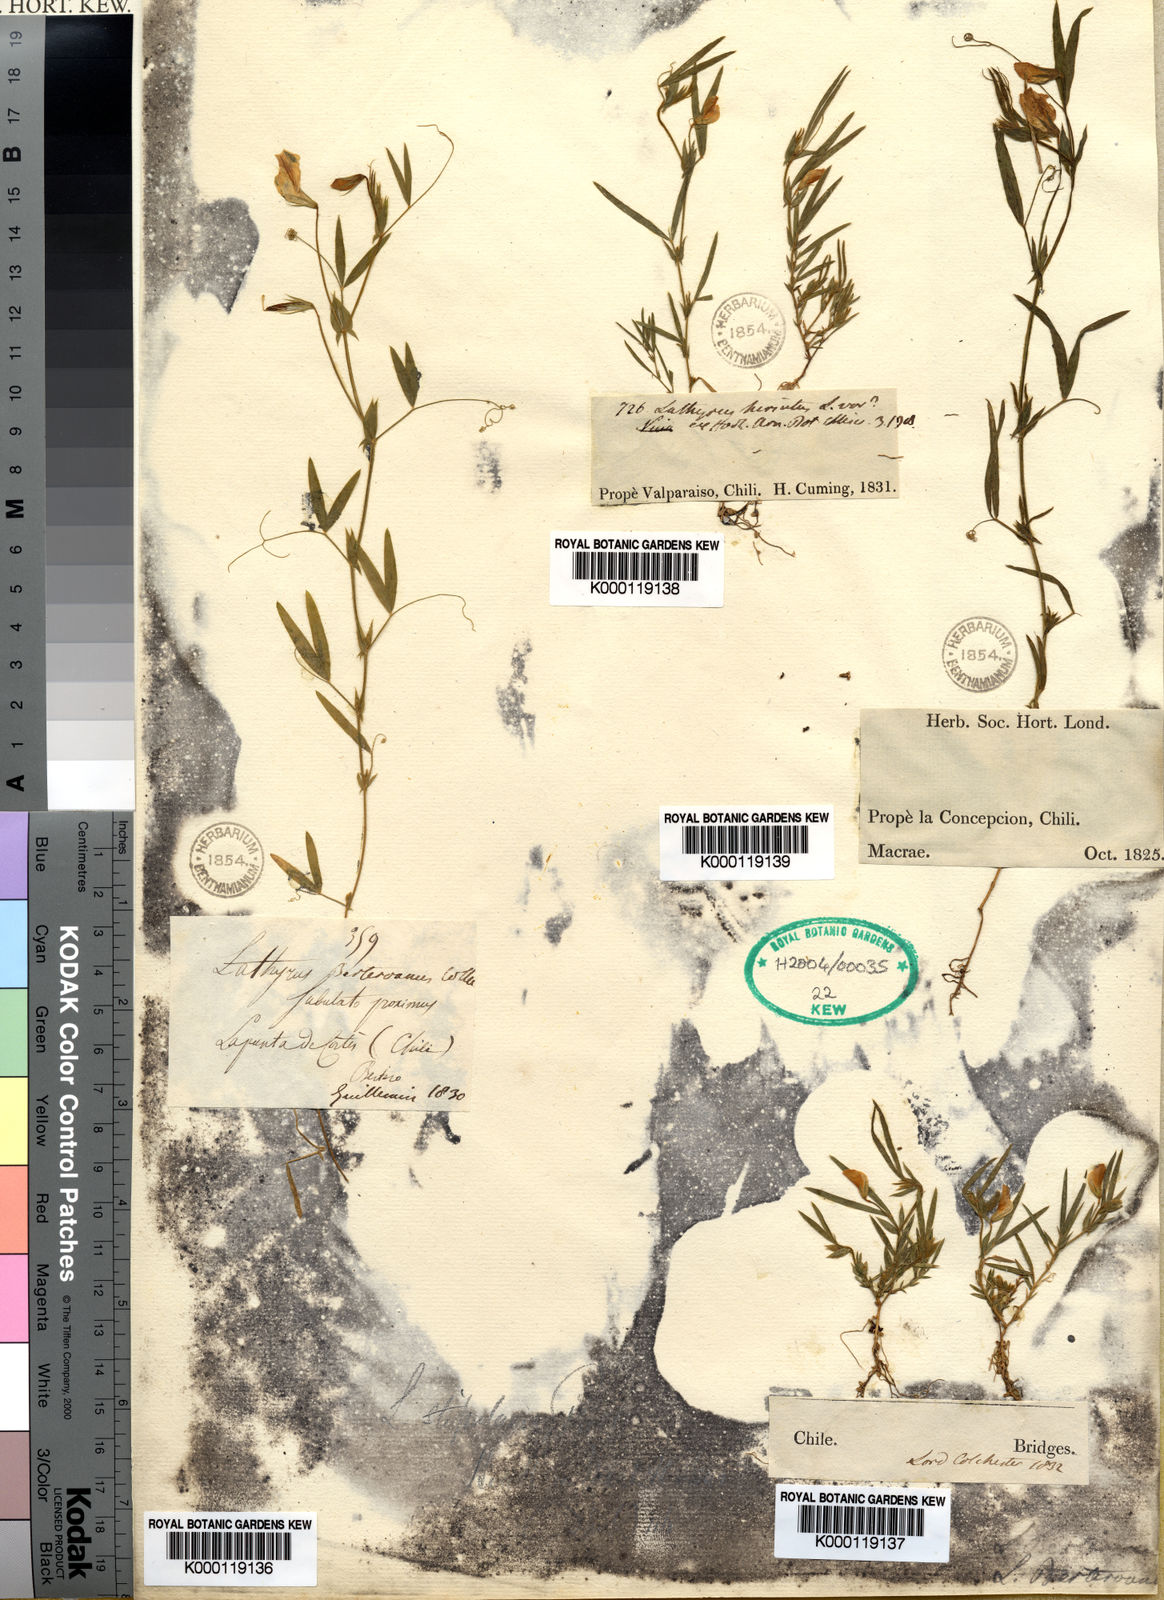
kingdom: Plantae
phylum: Tracheophyta
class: Magnoliopsida
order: Fabales
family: Fabaceae
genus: Lathyrus
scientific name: Lathyrus
